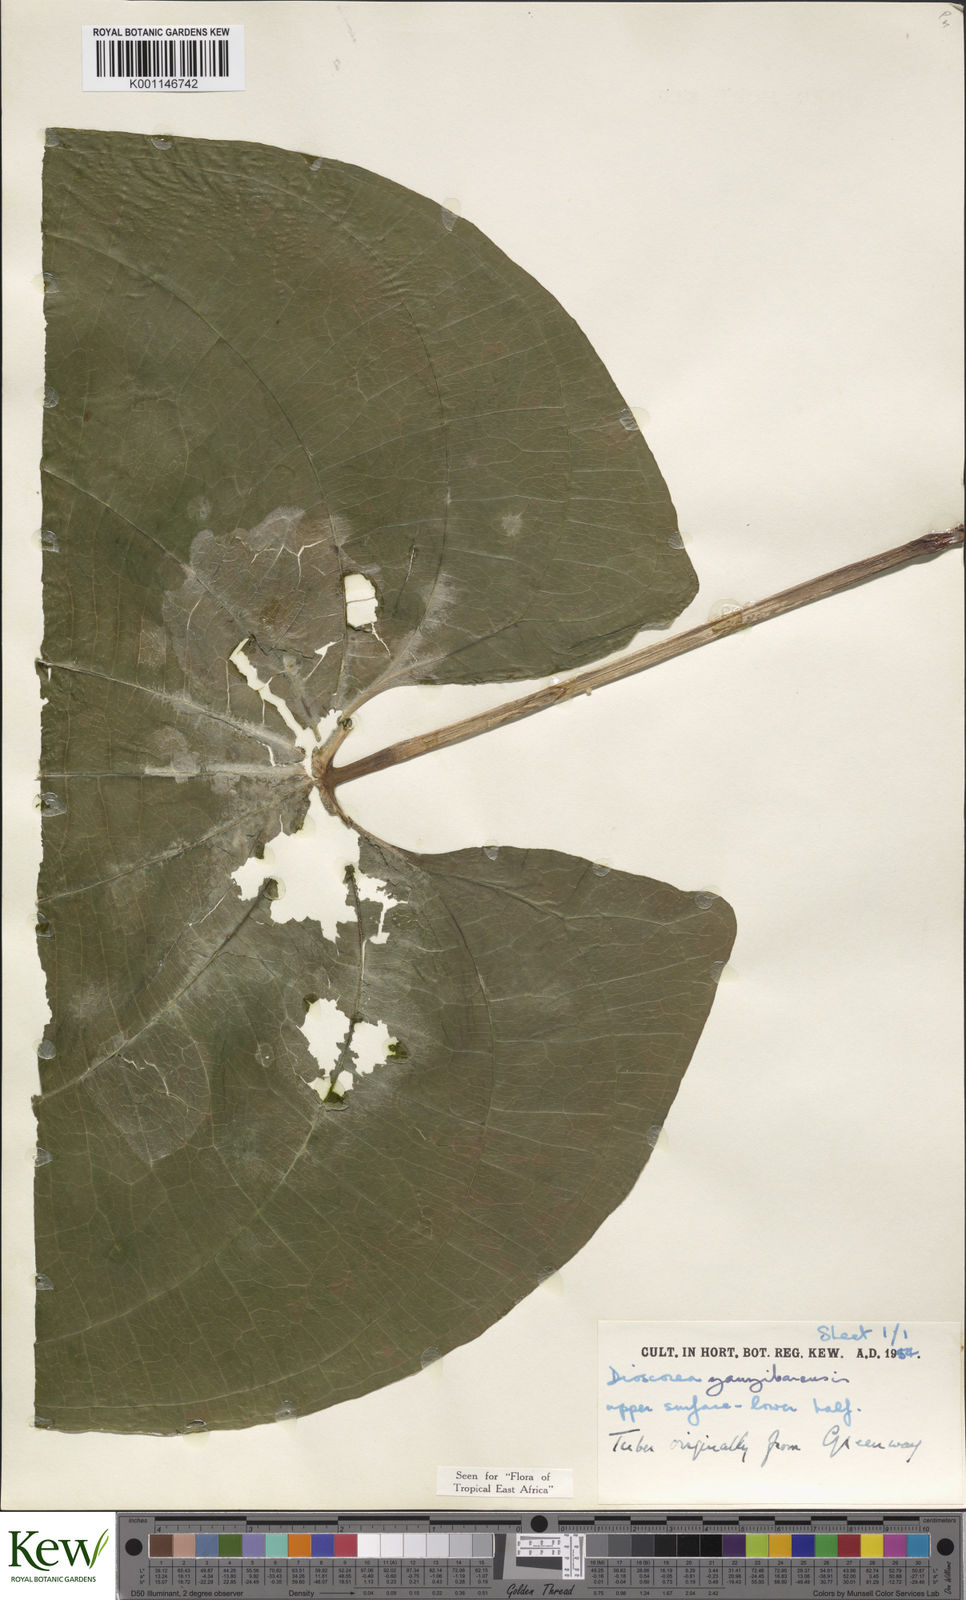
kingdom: Plantae
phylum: Tracheophyta
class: Liliopsida
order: Dioscoreales
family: Dioscoreaceae
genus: Dioscorea
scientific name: Dioscorea sansibarensis
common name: Zanzibar yam
